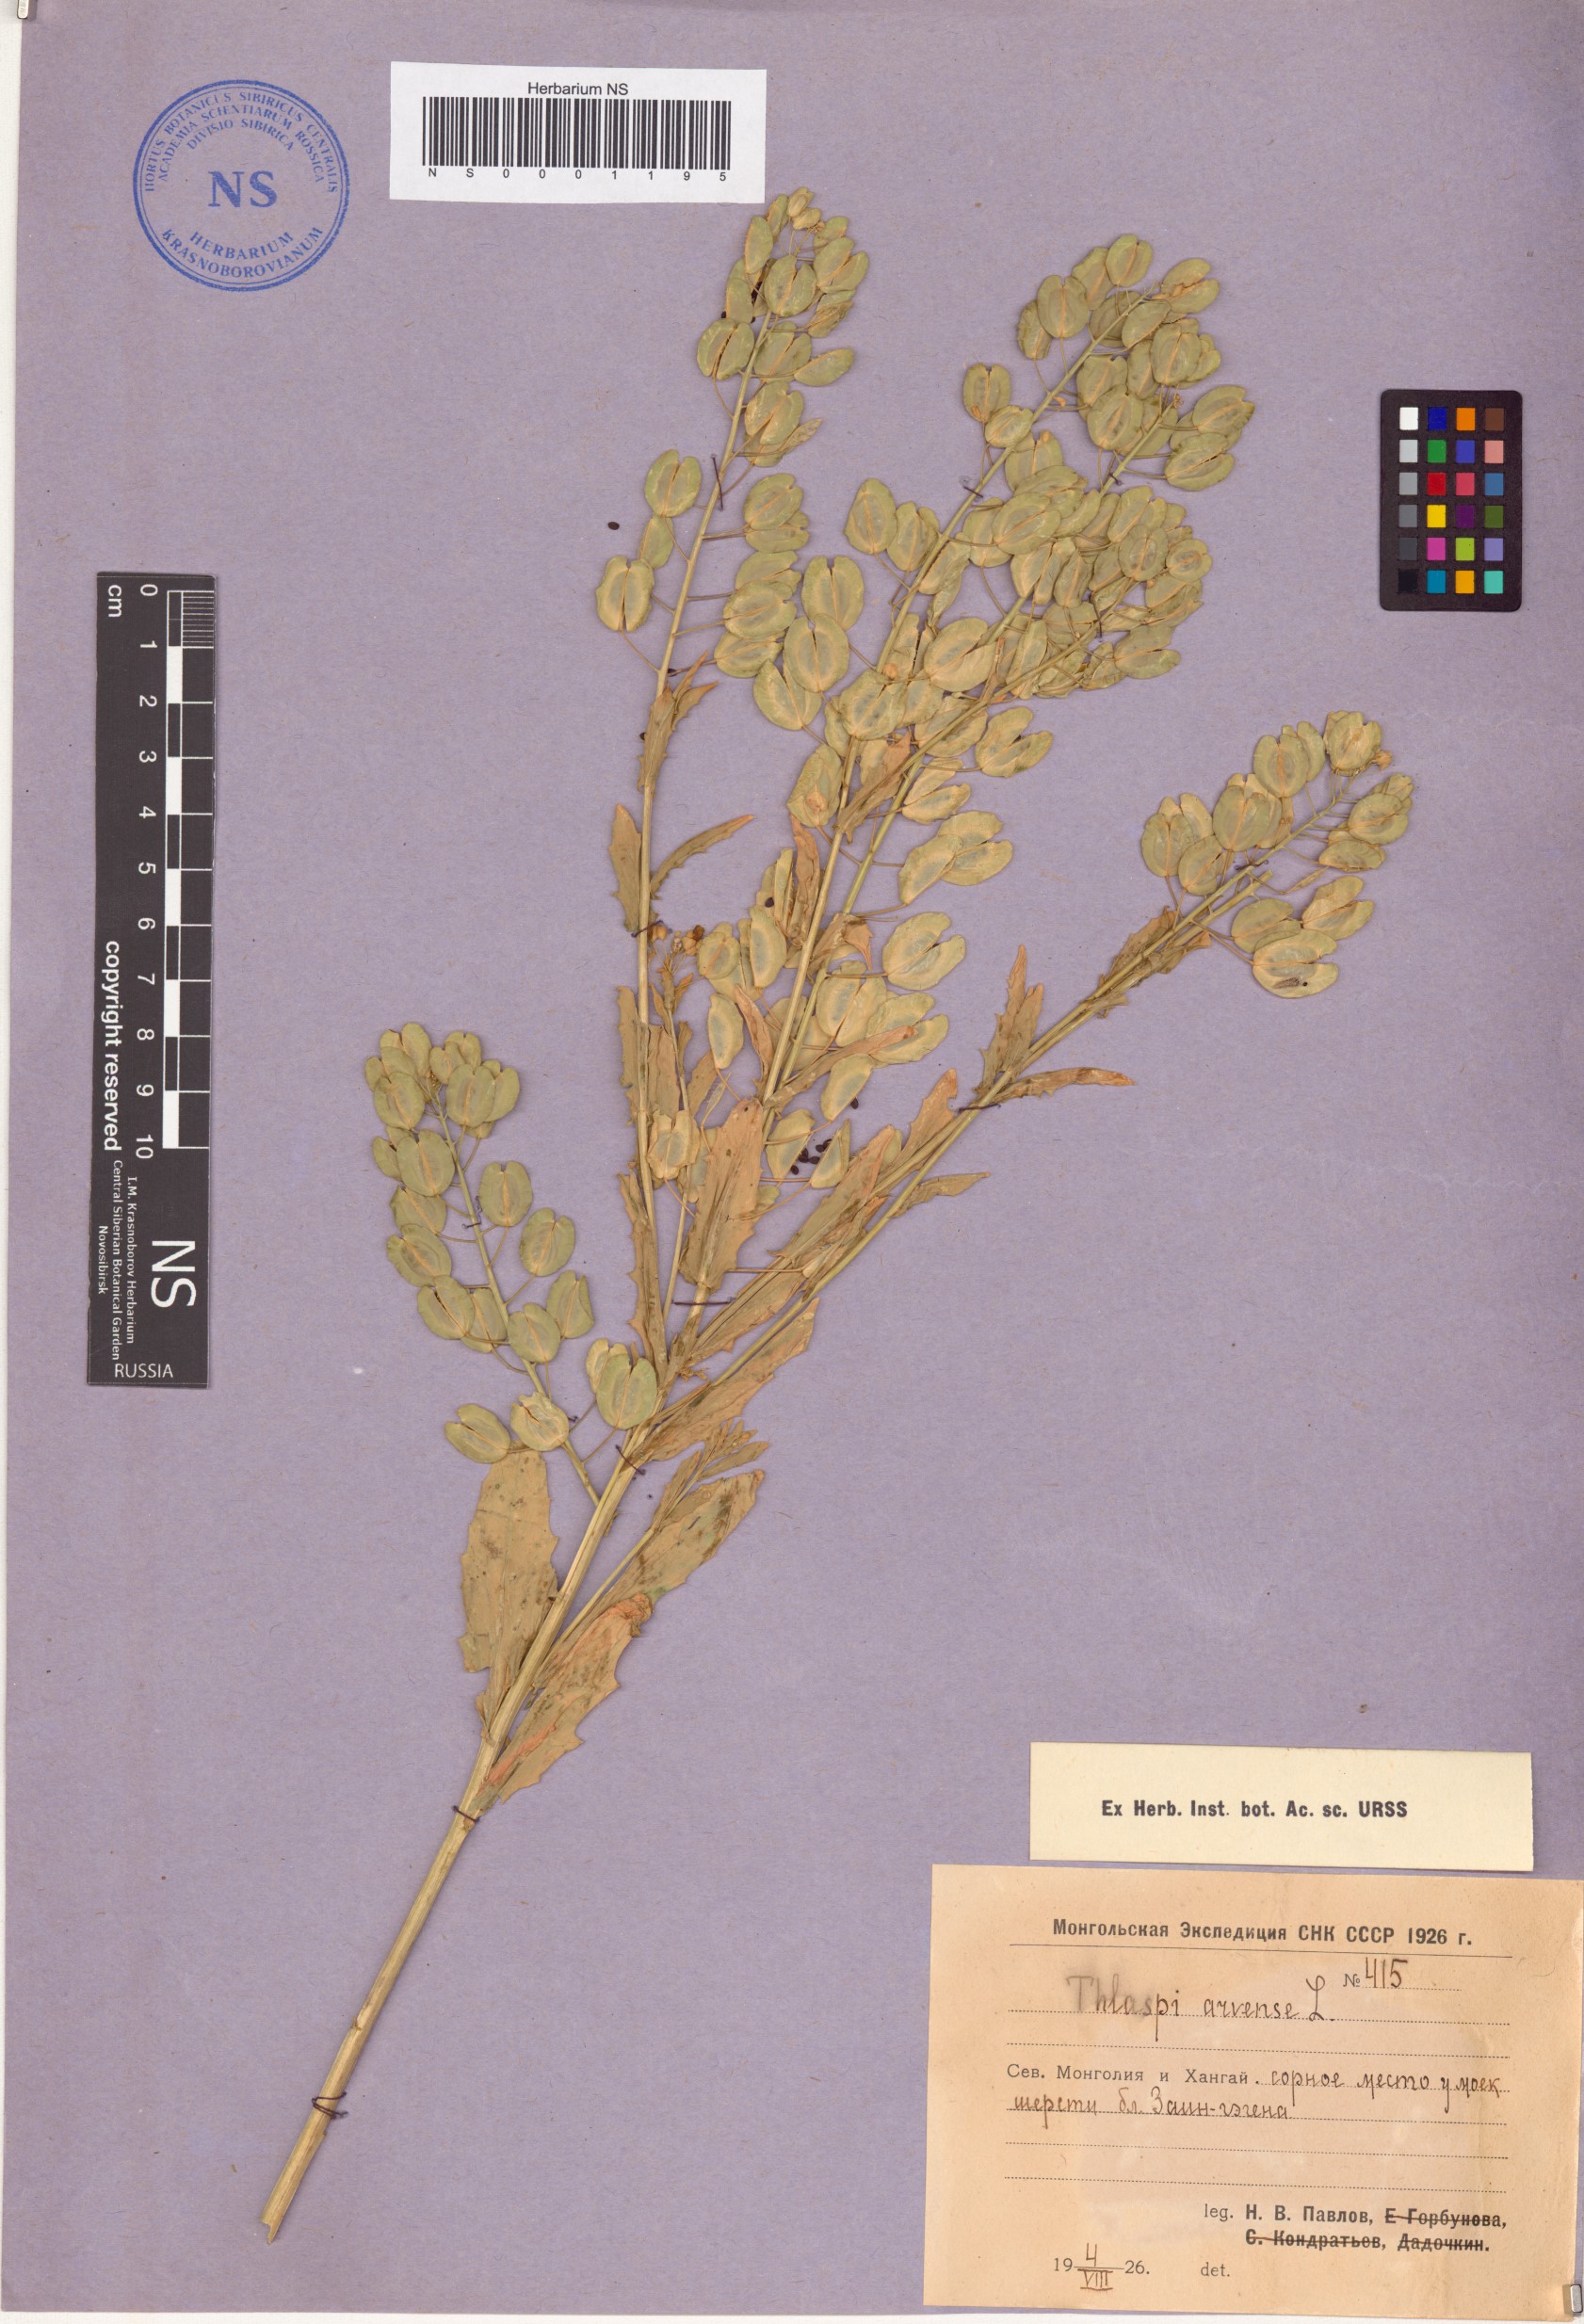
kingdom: Plantae
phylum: Tracheophyta
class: Magnoliopsida
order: Brassicales
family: Brassicaceae
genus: Thlaspi
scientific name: Thlaspi arvense
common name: Field pennycress
